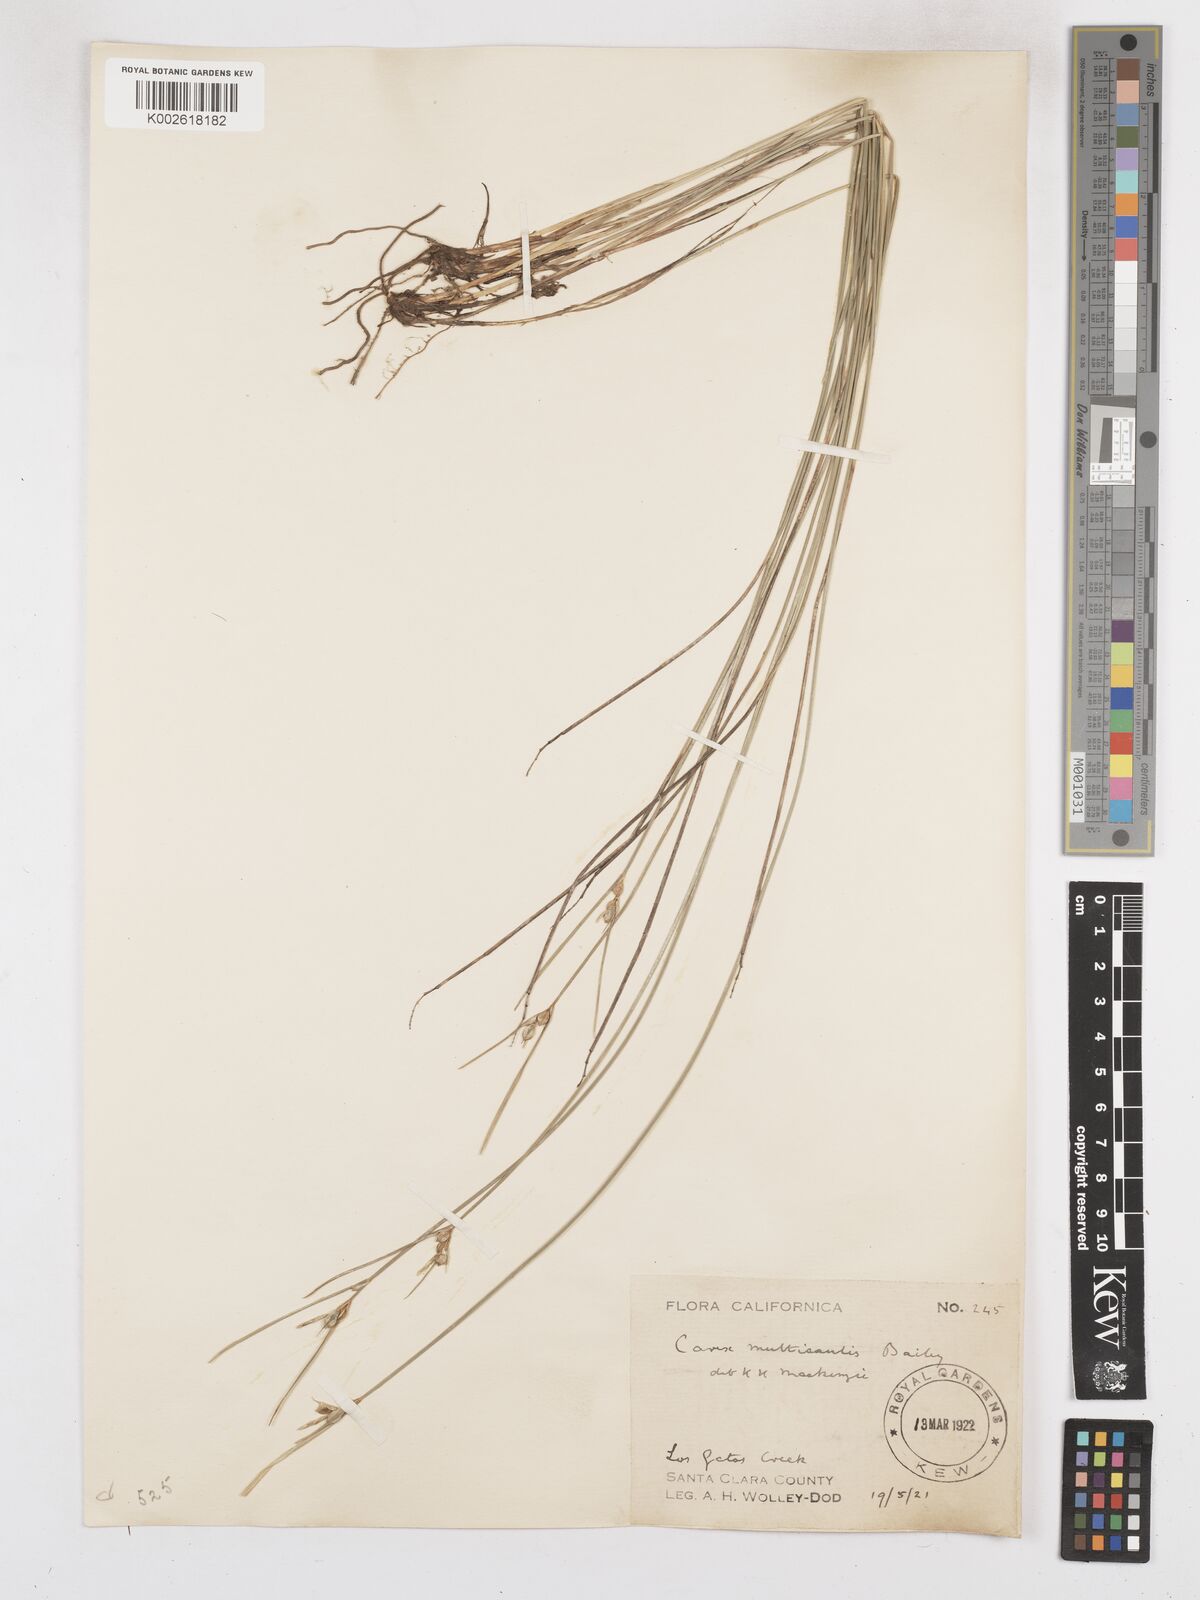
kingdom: Plantae
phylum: Tracheophyta
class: Liliopsida
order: Poales
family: Cyperaceae
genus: Carex
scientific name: Carex multicaulis
